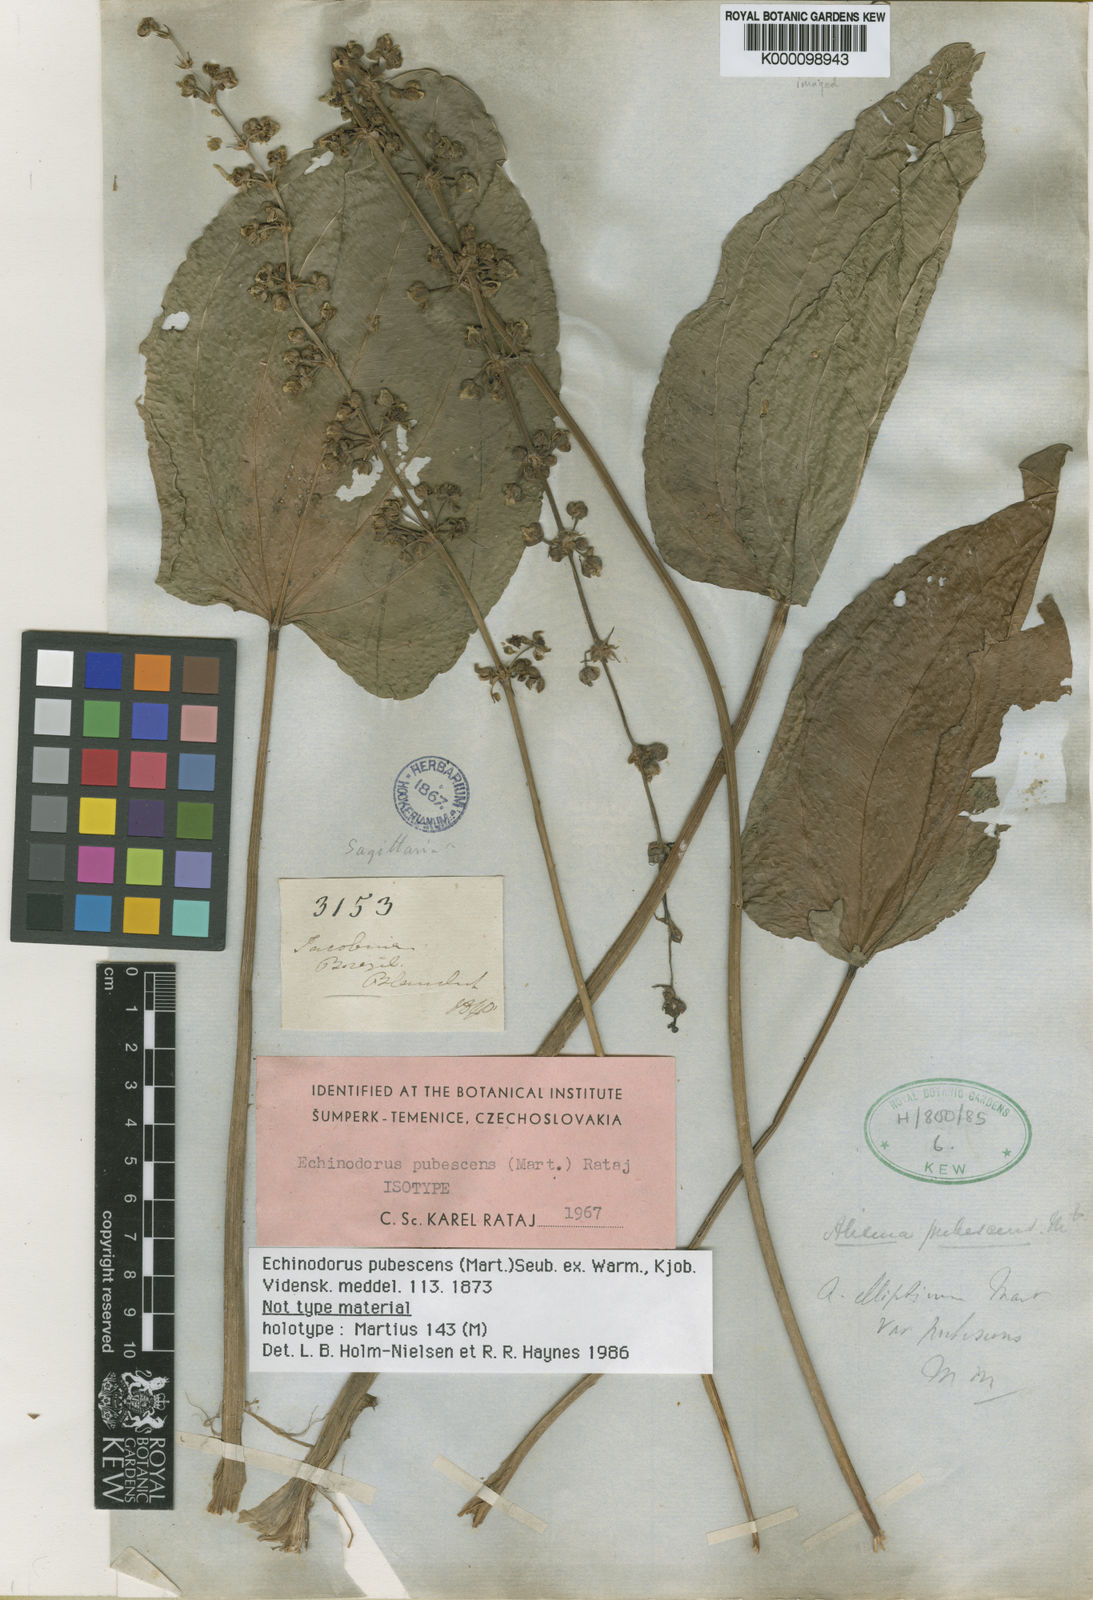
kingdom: Plantae
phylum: Tracheophyta
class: Liliopsida
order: Alismatales
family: Alismataceae
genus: Aquarius
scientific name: Aquarius pubescens
